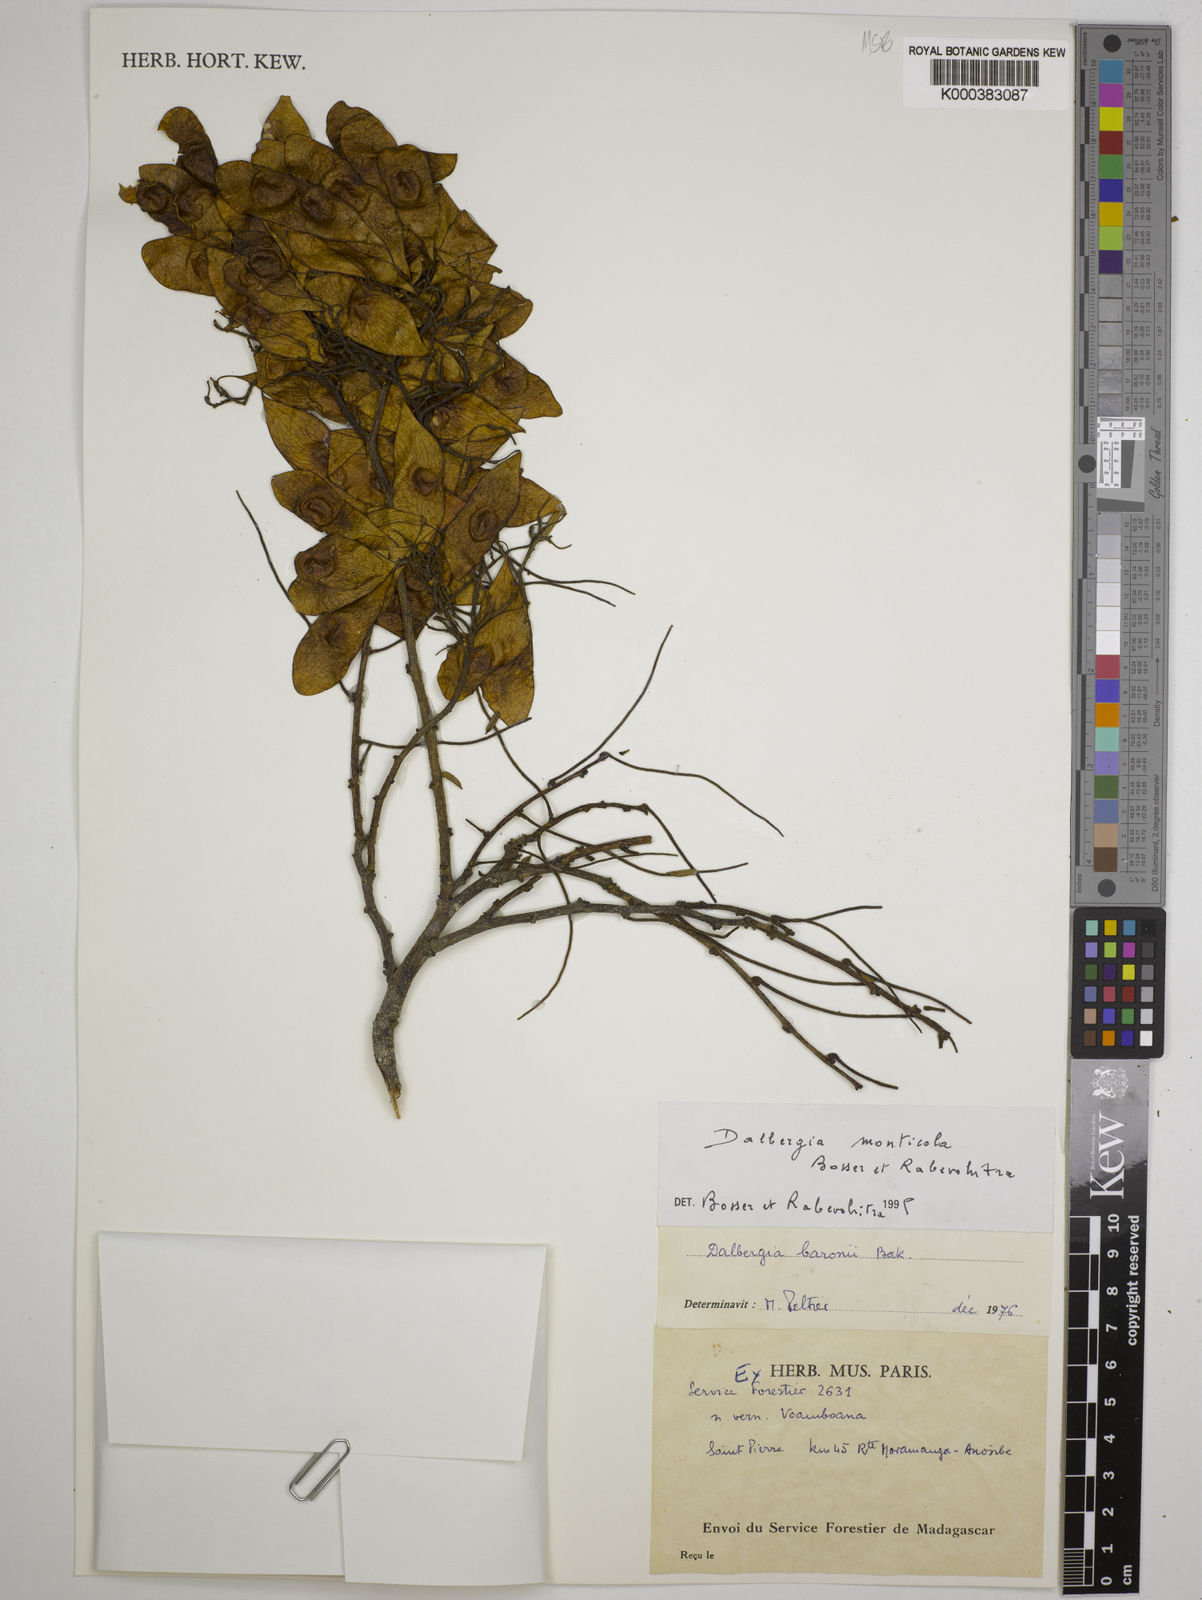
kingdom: Plantae
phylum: Tracheophyta
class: Magnoliopsida
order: Fabales
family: Fabaceae
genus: Dalbergia
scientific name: Dalbergia monticola
